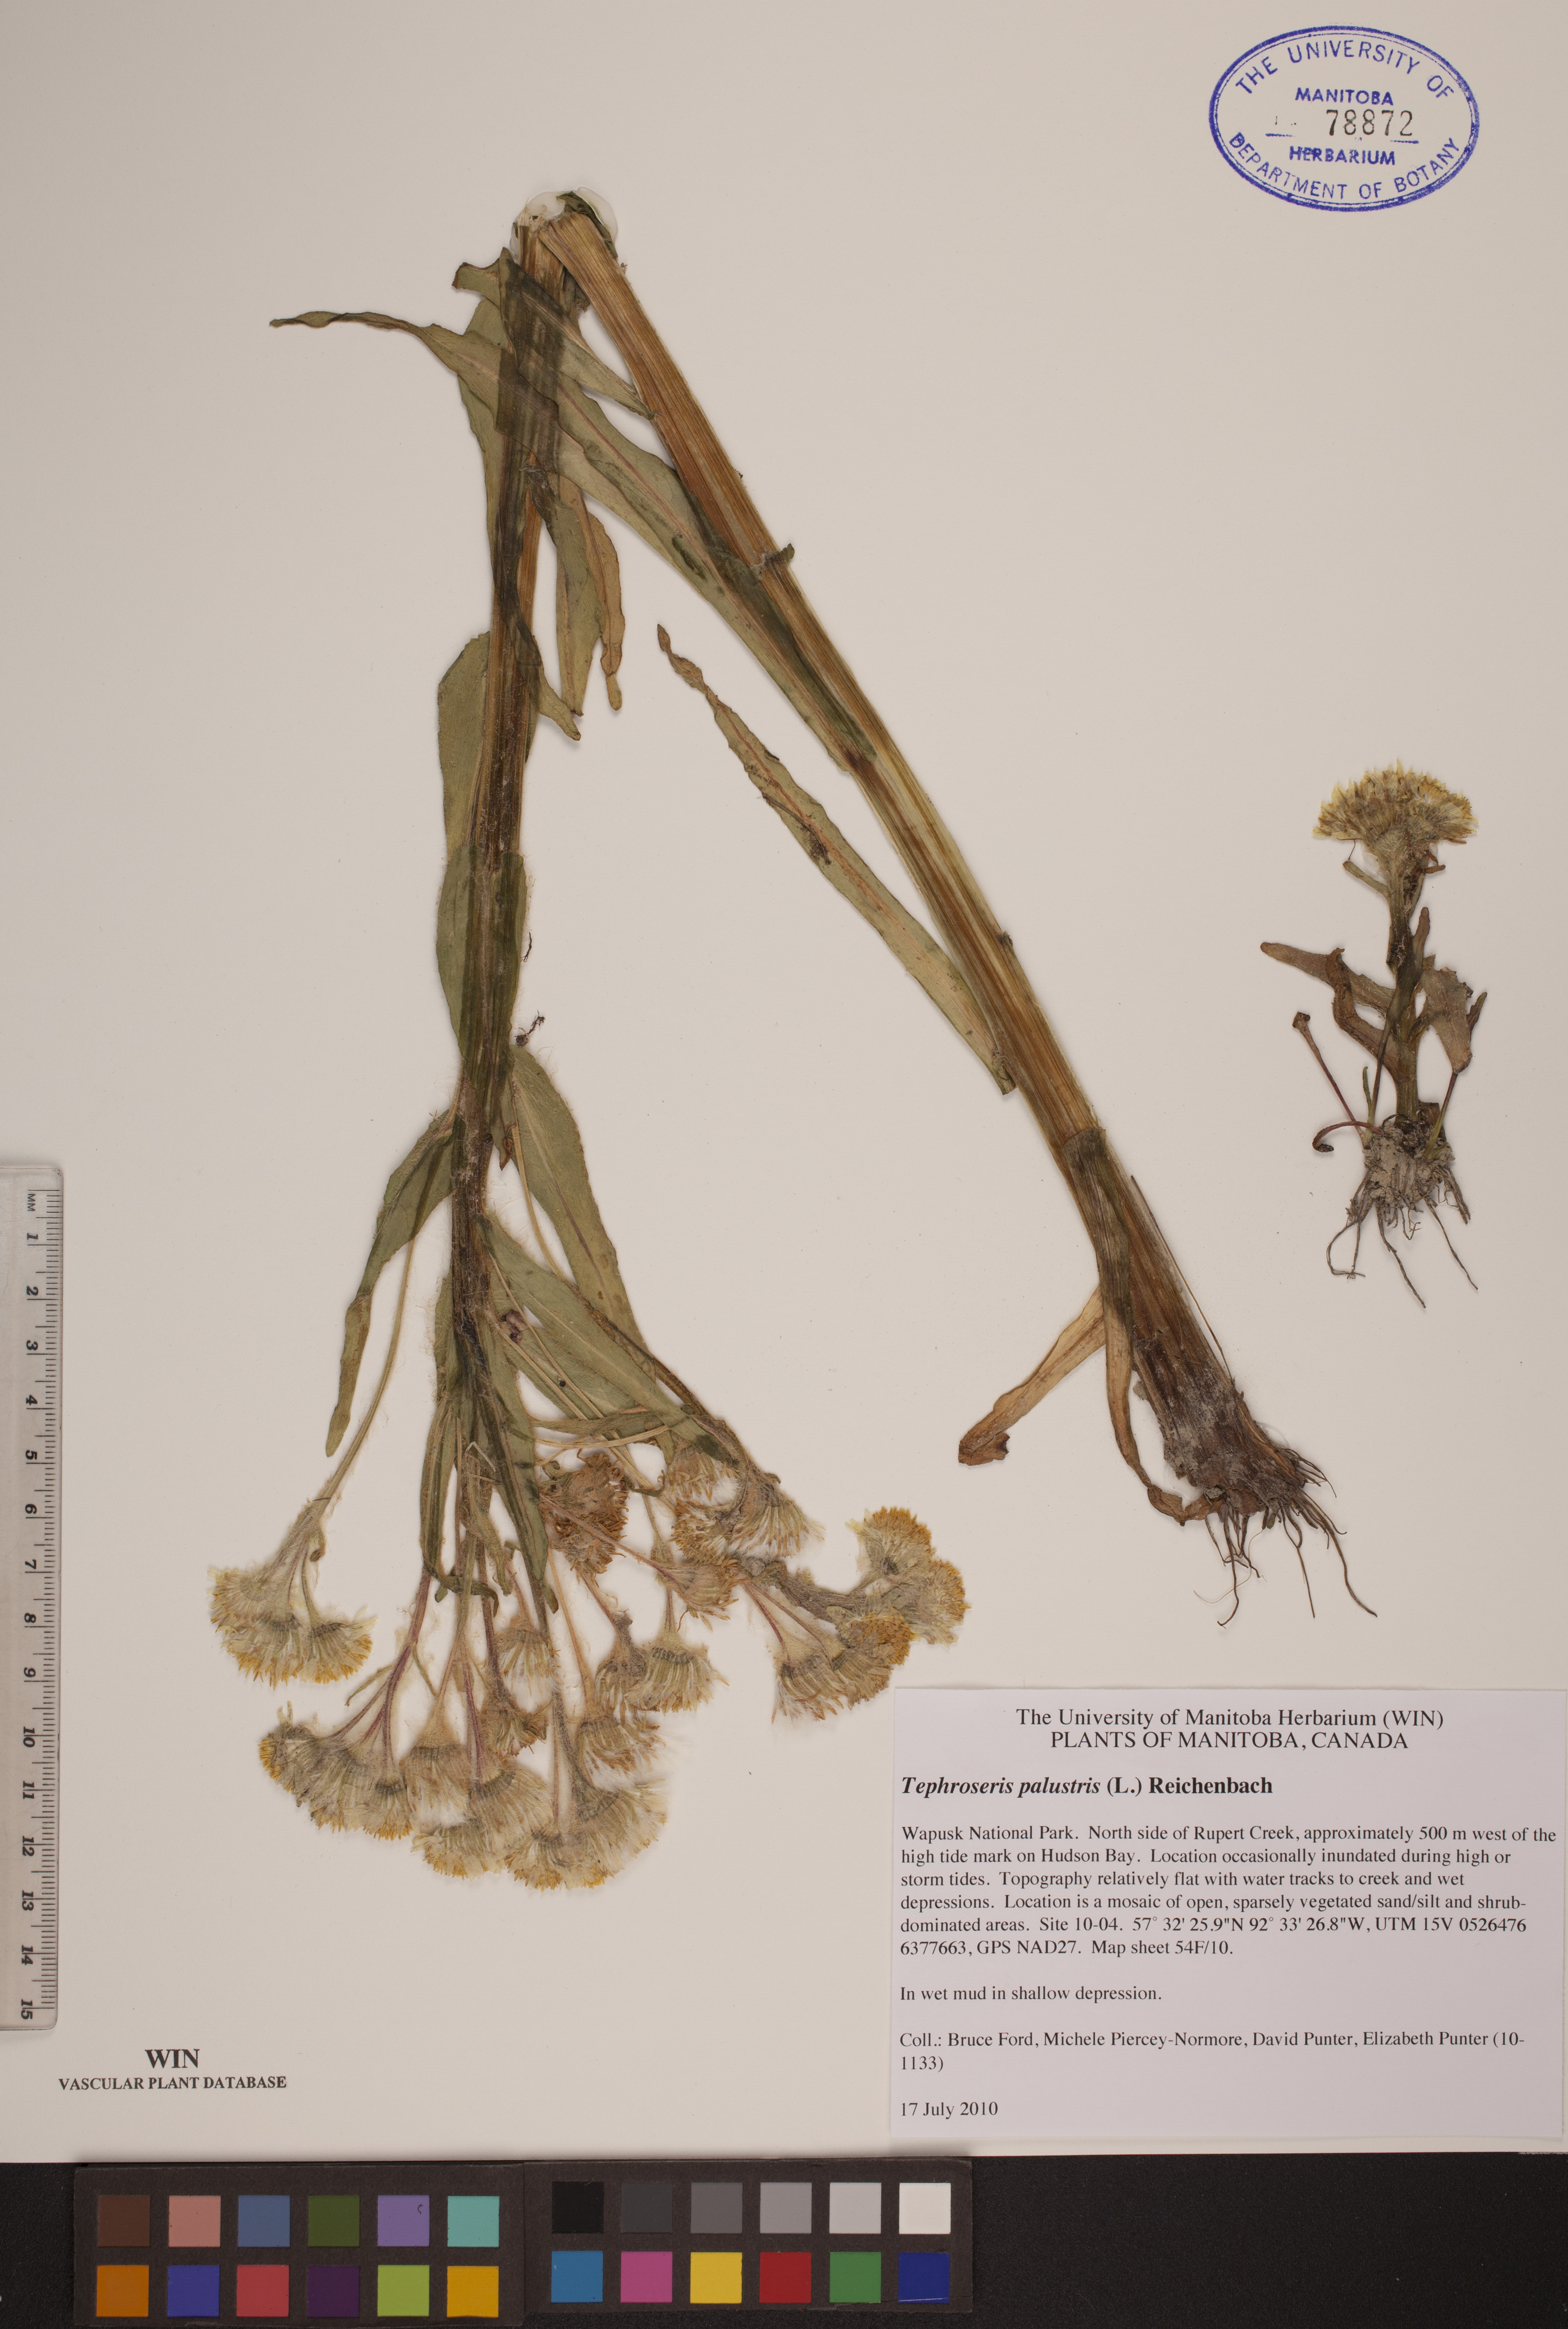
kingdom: Plantae
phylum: Tracheophyta
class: Magnoliopsida
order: Asterales
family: Asteraceae
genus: Tephroseris
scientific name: Tephroseris palustris
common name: Marsh fleawort
